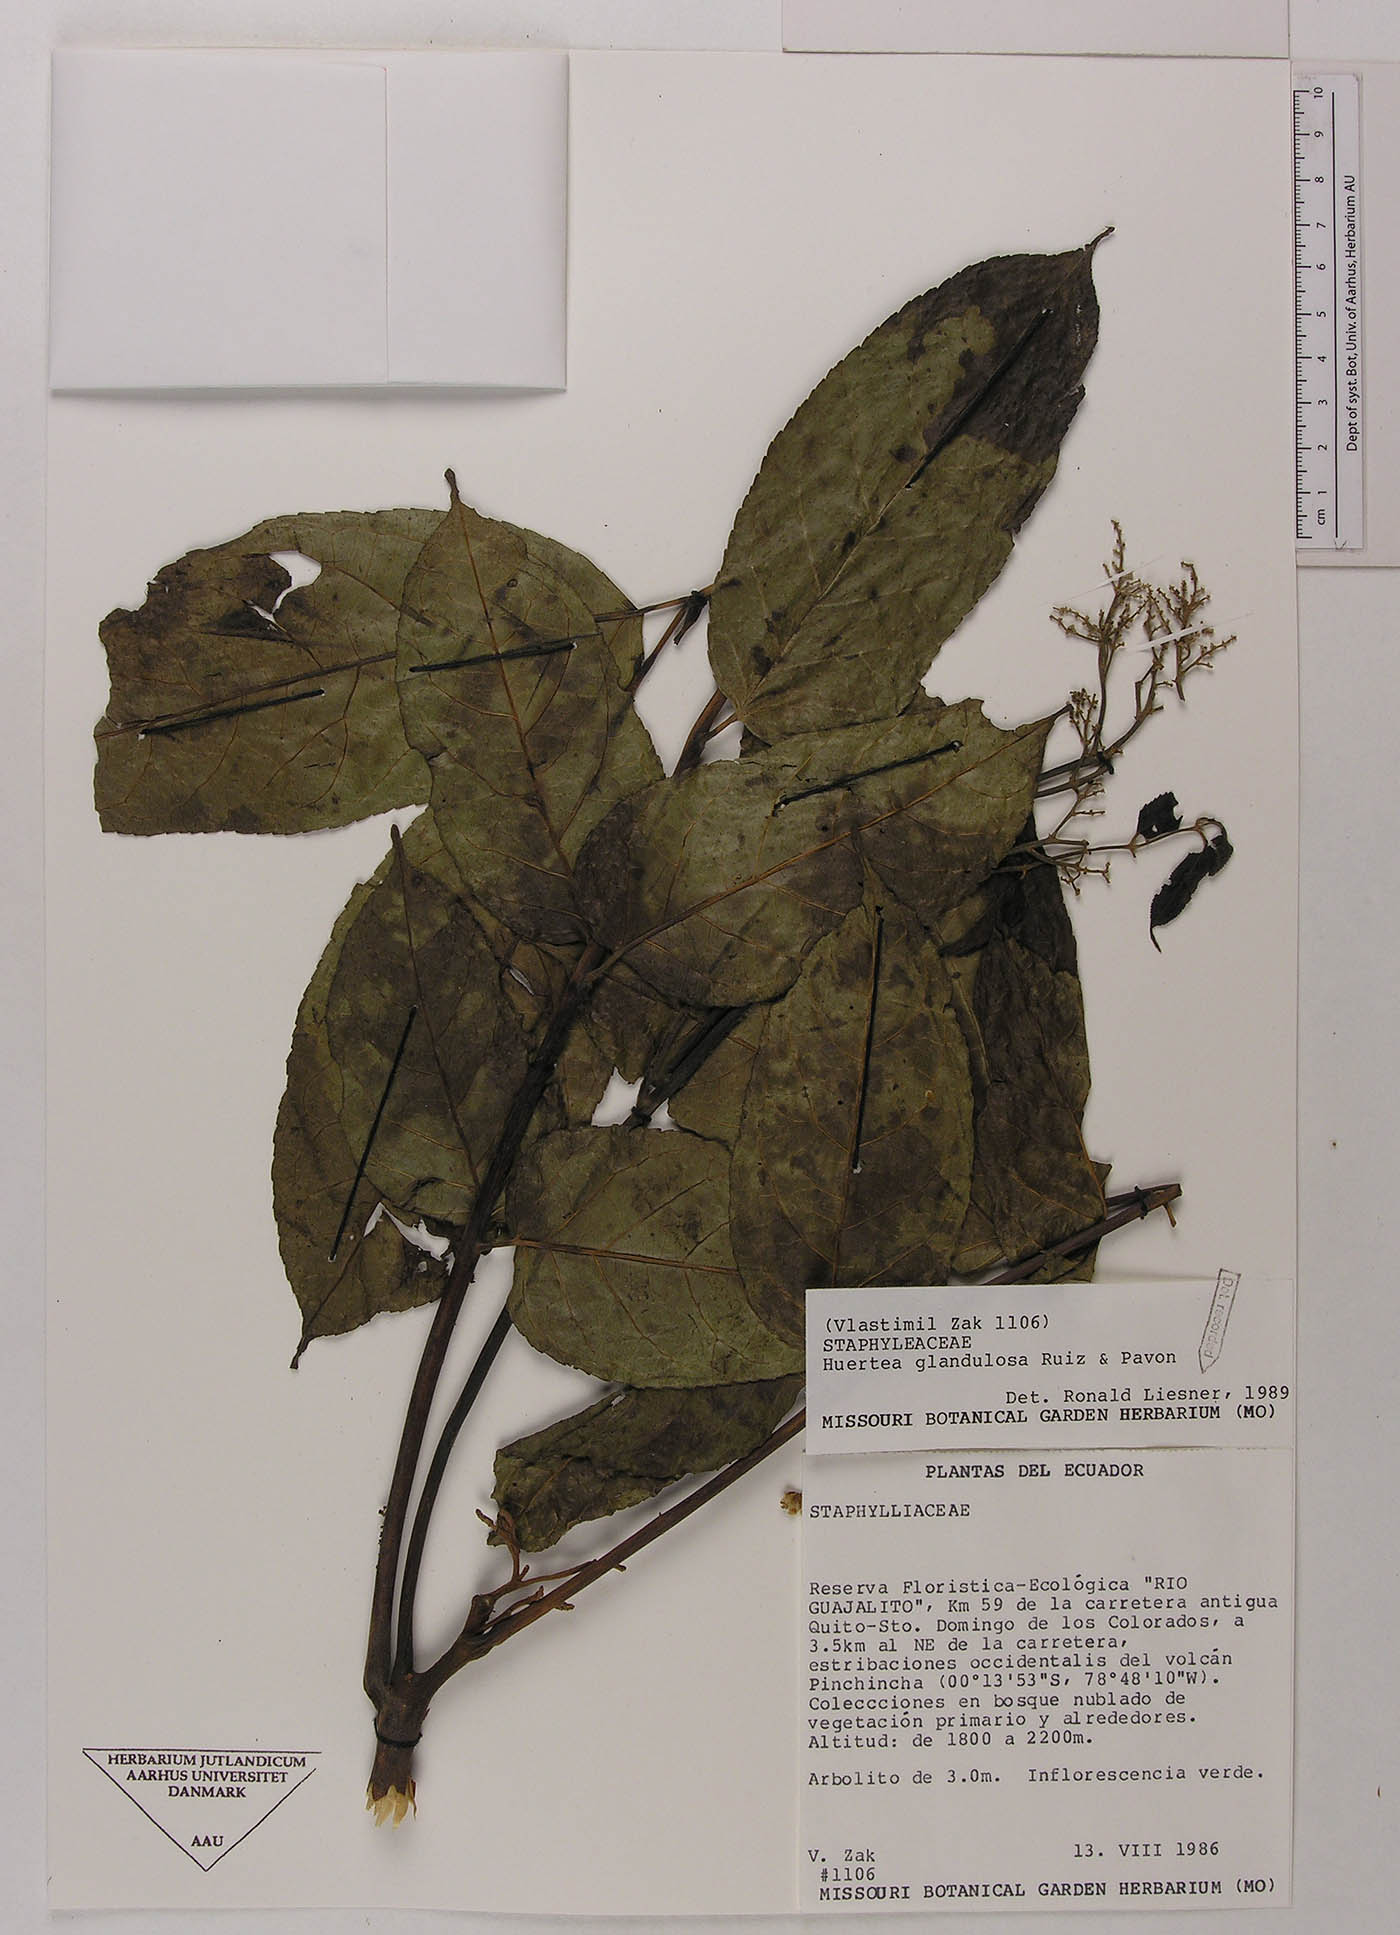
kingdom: Plantae
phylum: Tracheophyta
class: Magnoliopsida
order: Huerteales
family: Tapisciaceae
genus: Huertea
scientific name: Huertea glandulosa
